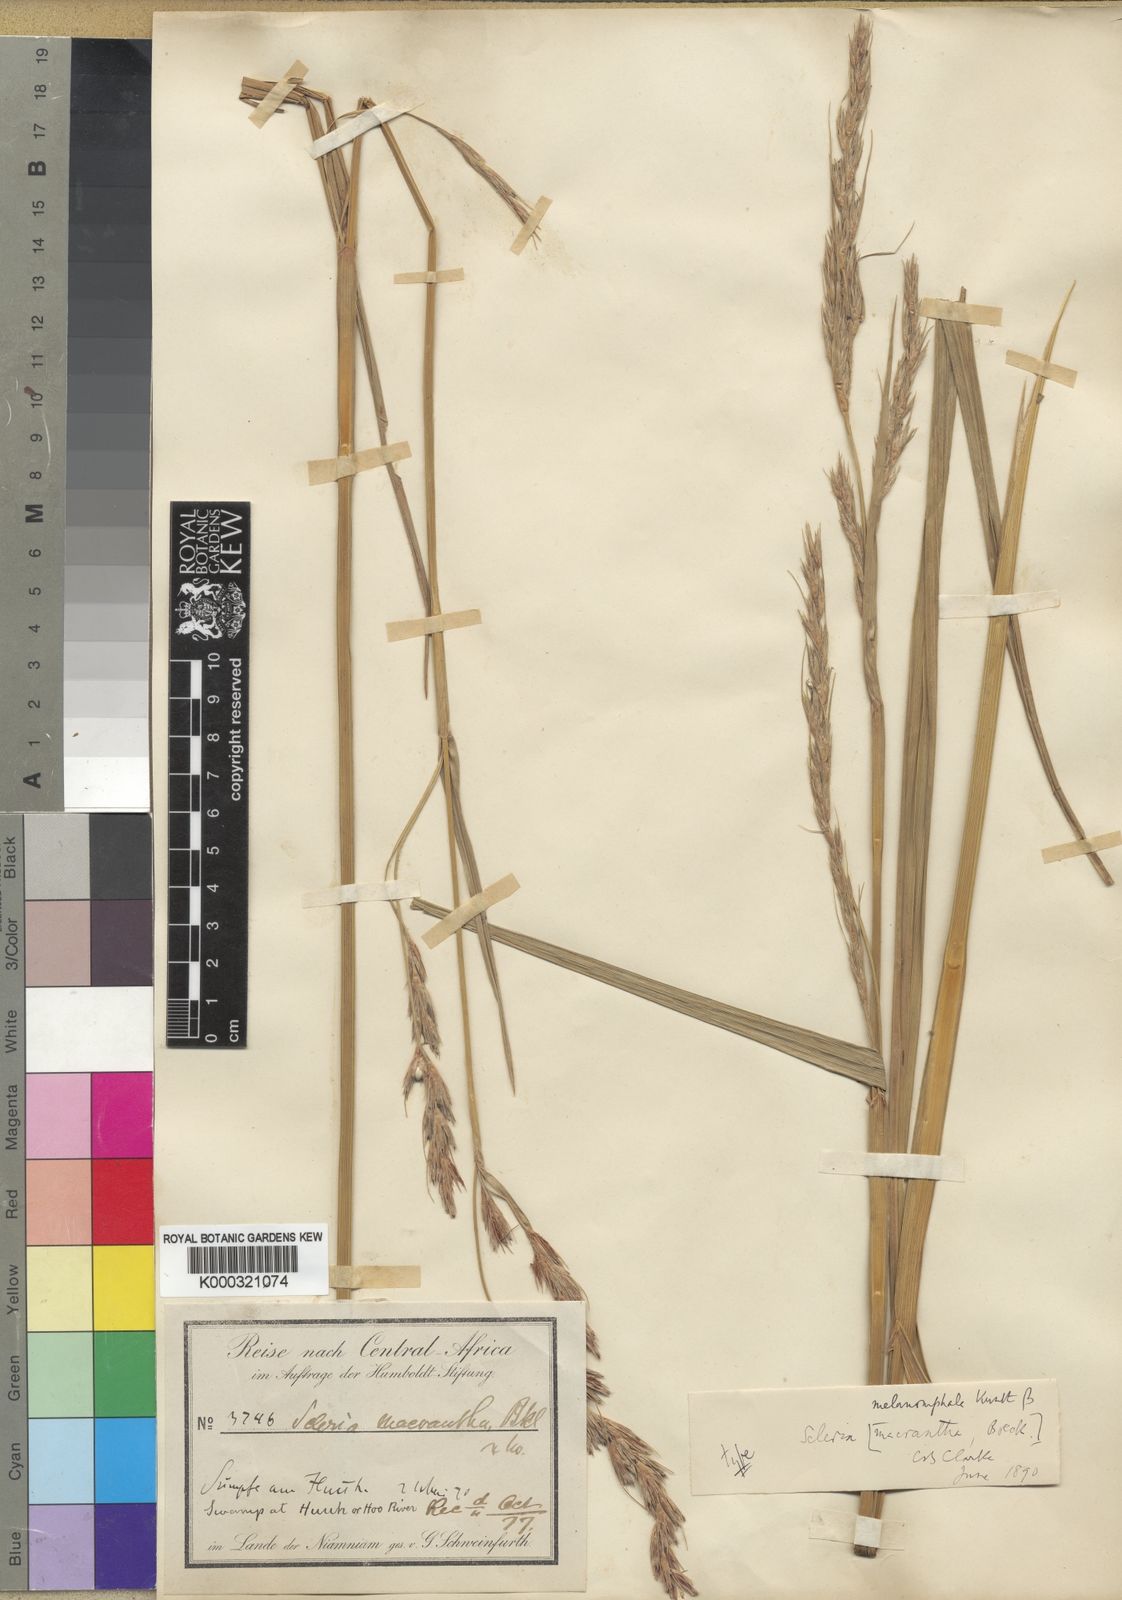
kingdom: Plantae
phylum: Tracheophyta
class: Liliopsida
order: Poales
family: Cyperaceae
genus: Scleria
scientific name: Scleria melanomphala
